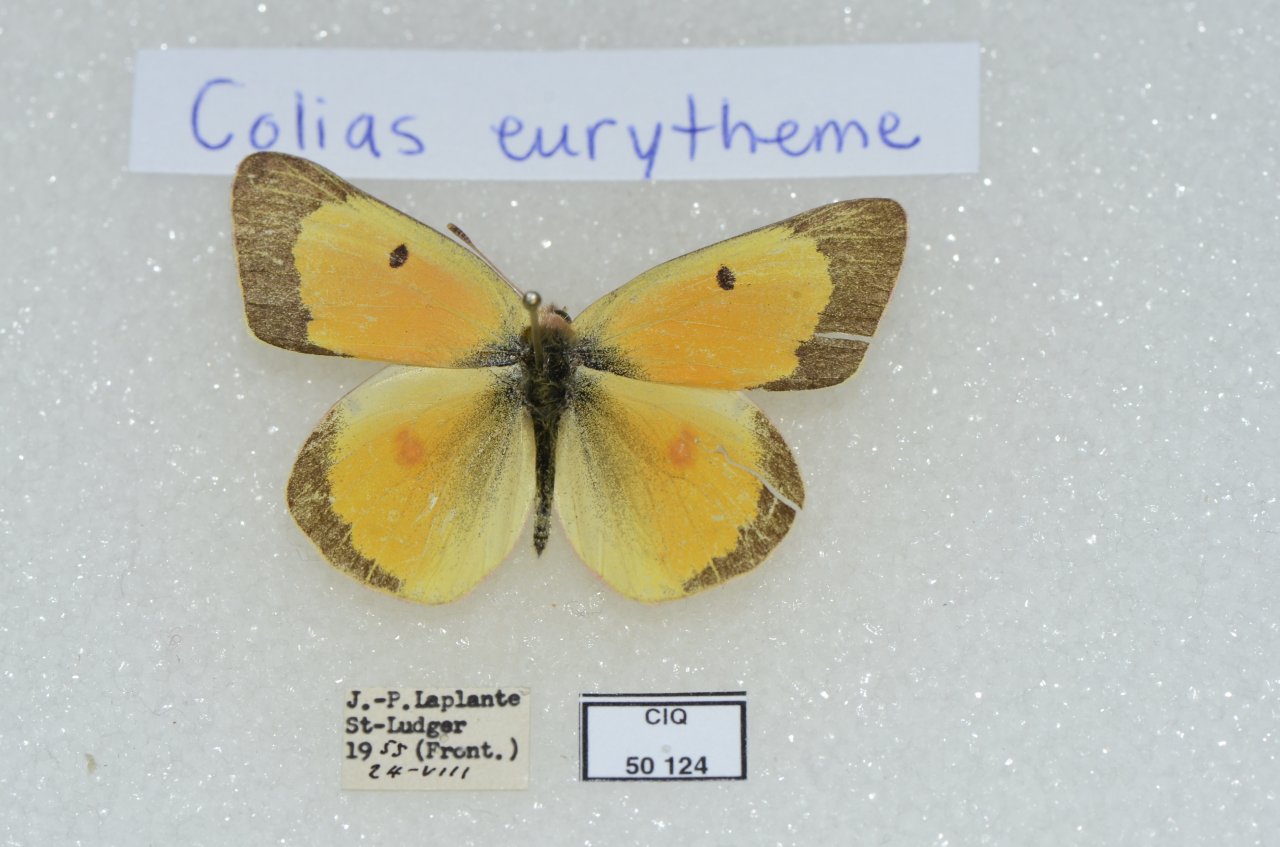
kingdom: Animalia
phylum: Arthropoda
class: Insecta
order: Lepidoptera
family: Pieridae
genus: Colias
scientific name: Colias eurytheme
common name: Orange Sulphur
